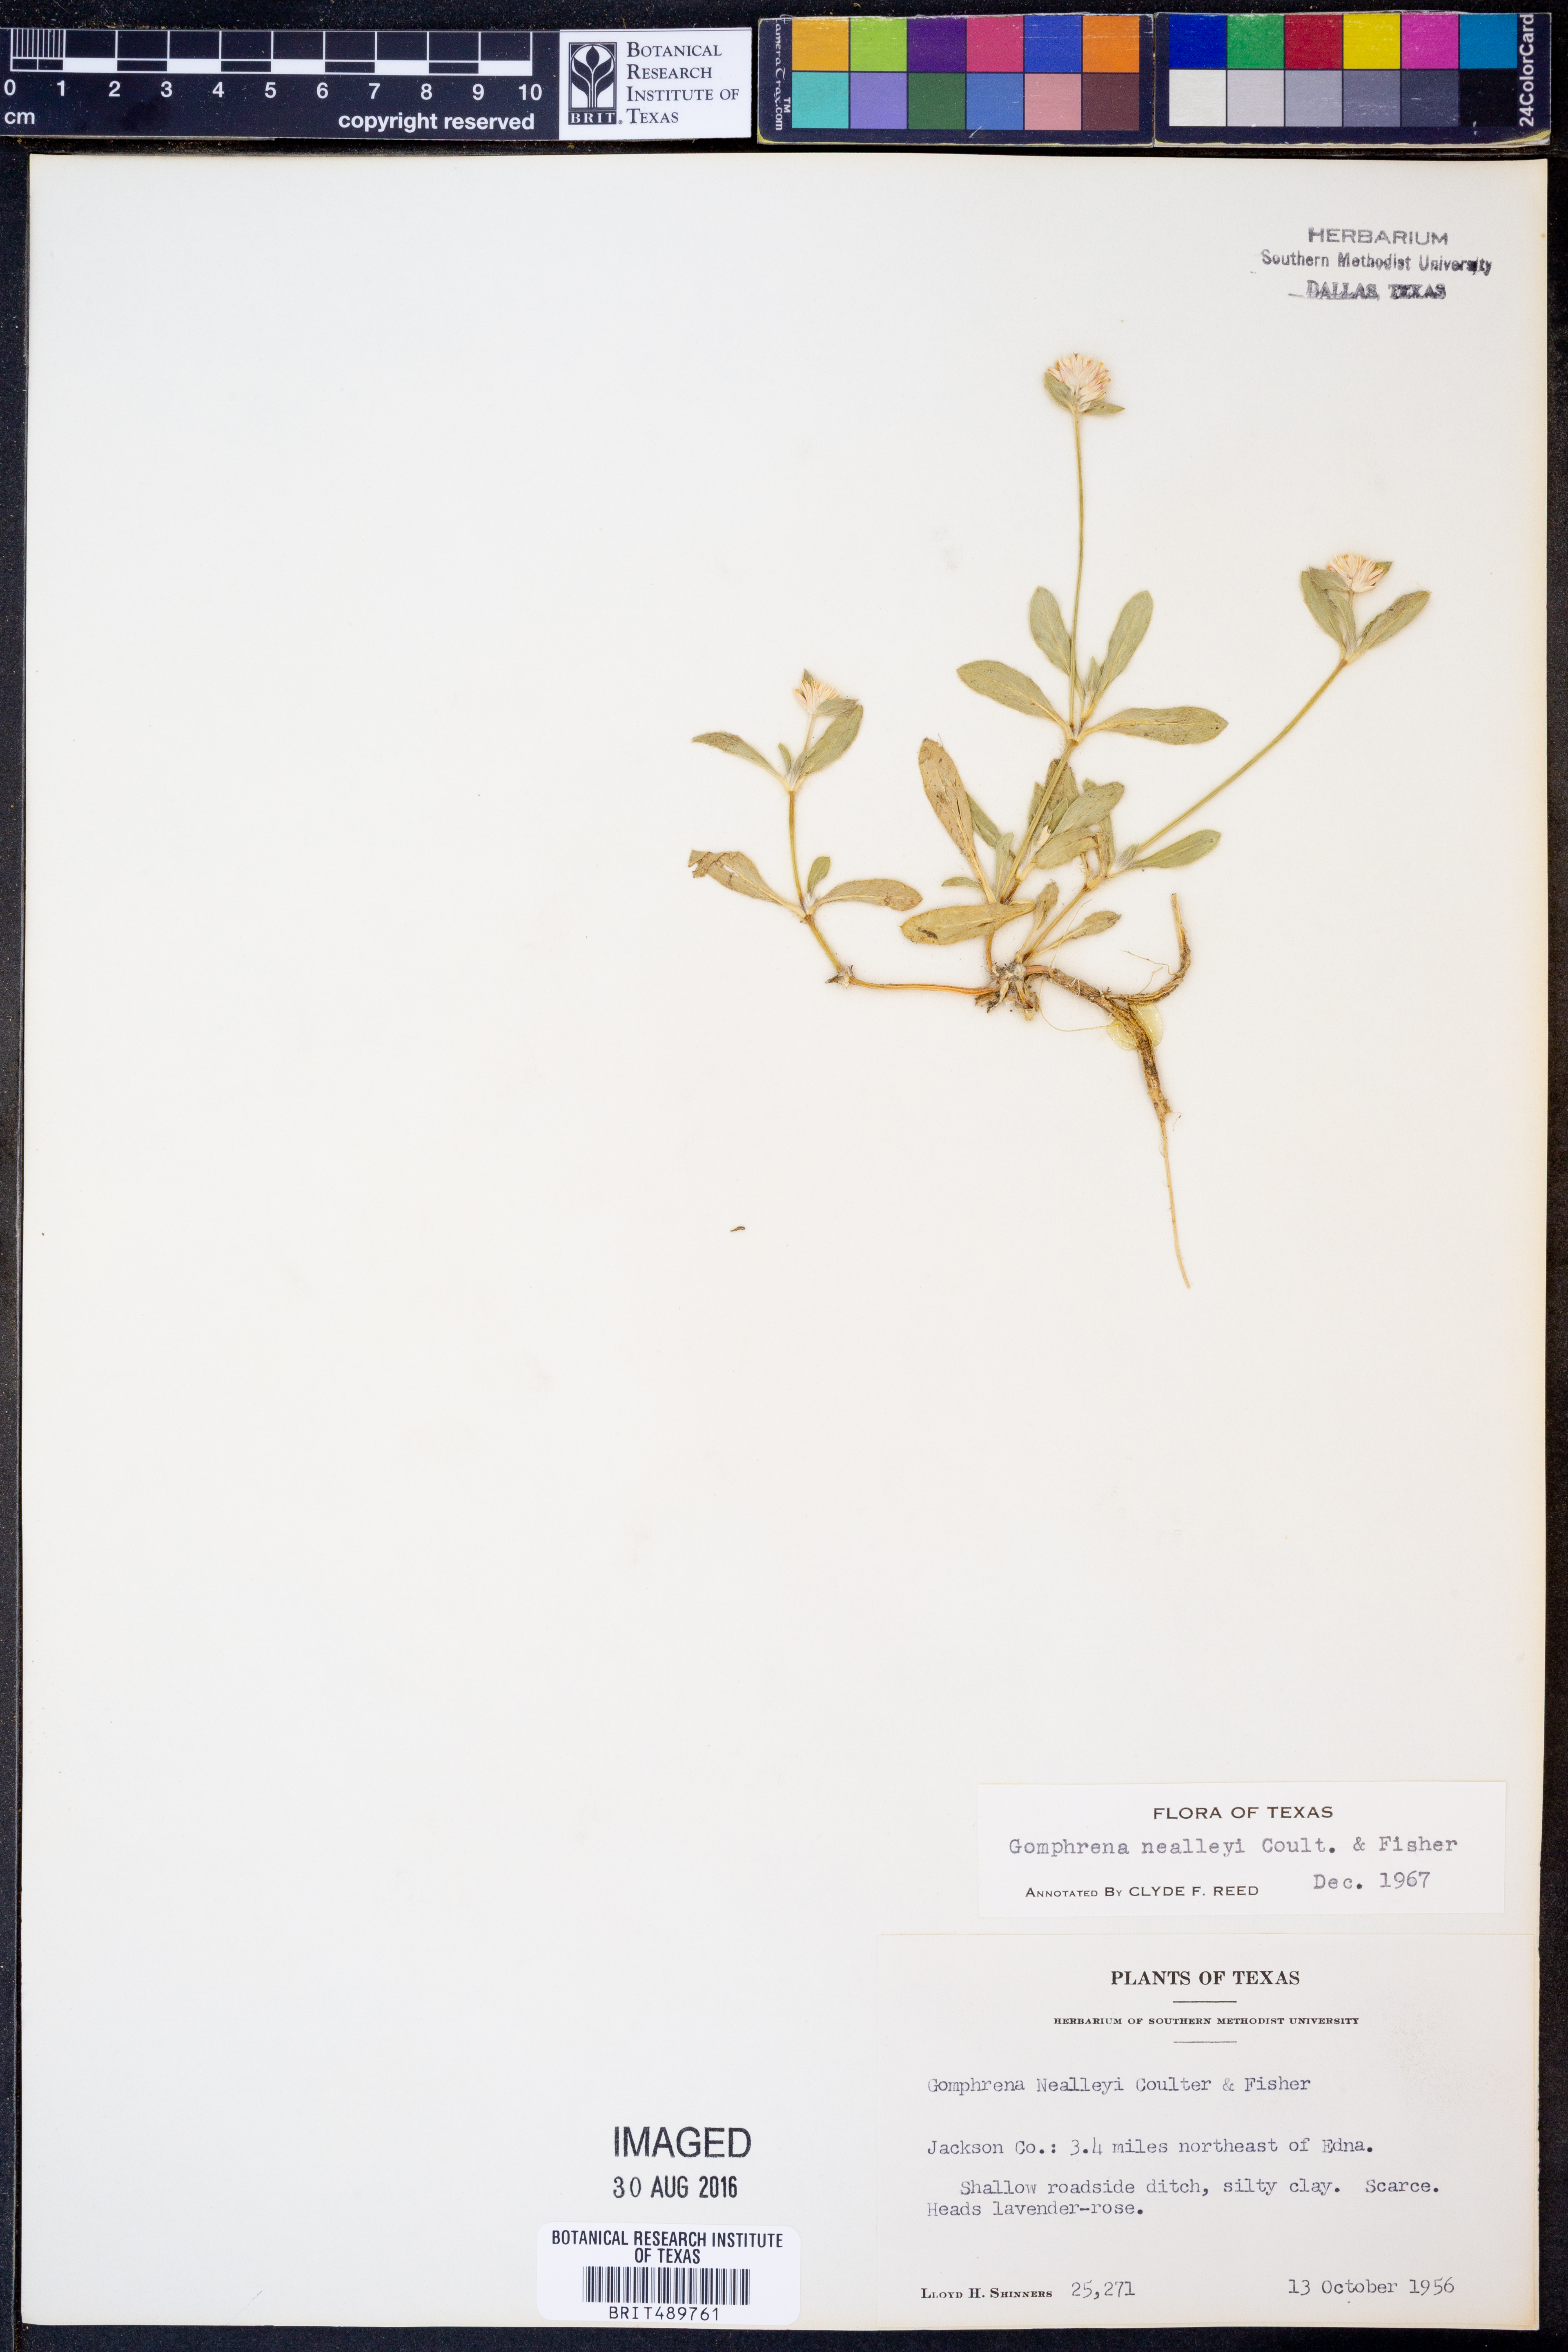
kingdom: Plantae
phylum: Tracheophyta
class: Magnoliopsida
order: Caryophyllales
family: Amaranthaceae
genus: Gomphrena
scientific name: Gomphrena nealleyi
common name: Nealley's globe-amaranth
